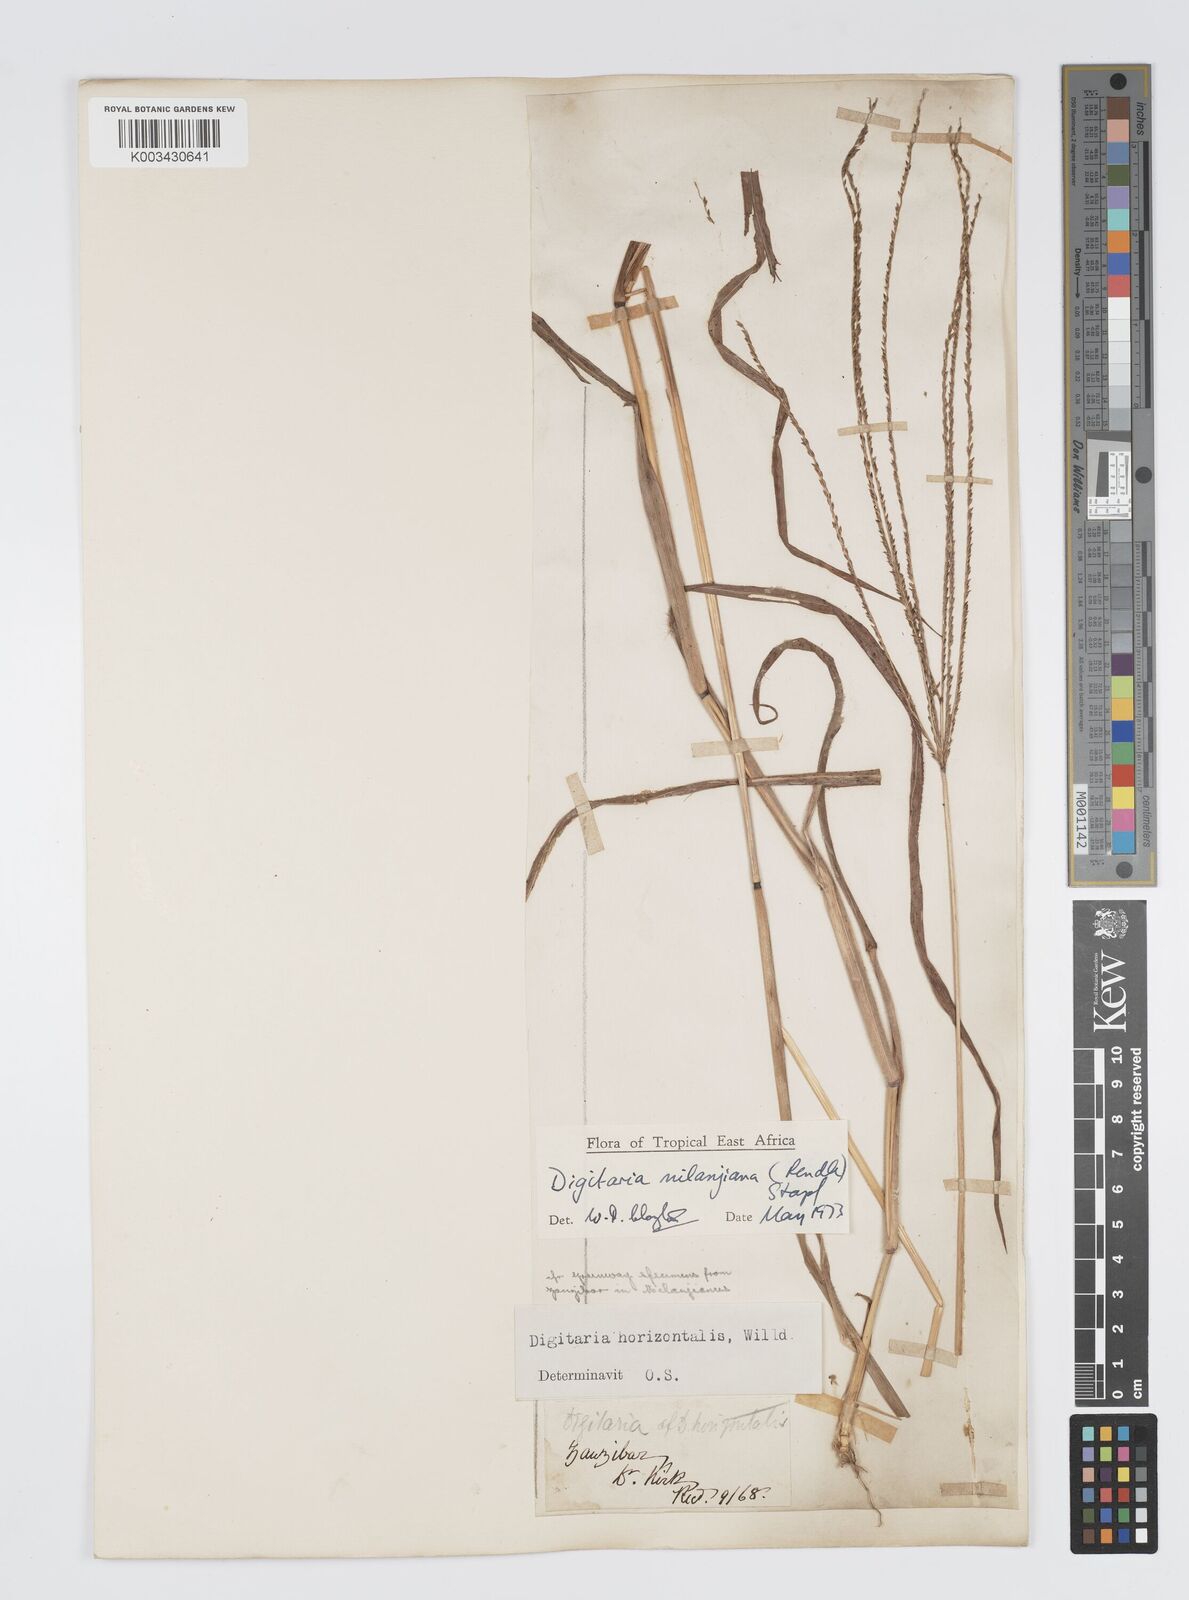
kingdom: Plantae
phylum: Tracheophyta
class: Liliopsida
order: Poales
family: Poaceae
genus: Digitaria
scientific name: Digitaria milanjiana
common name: Madagascar crabgrass
